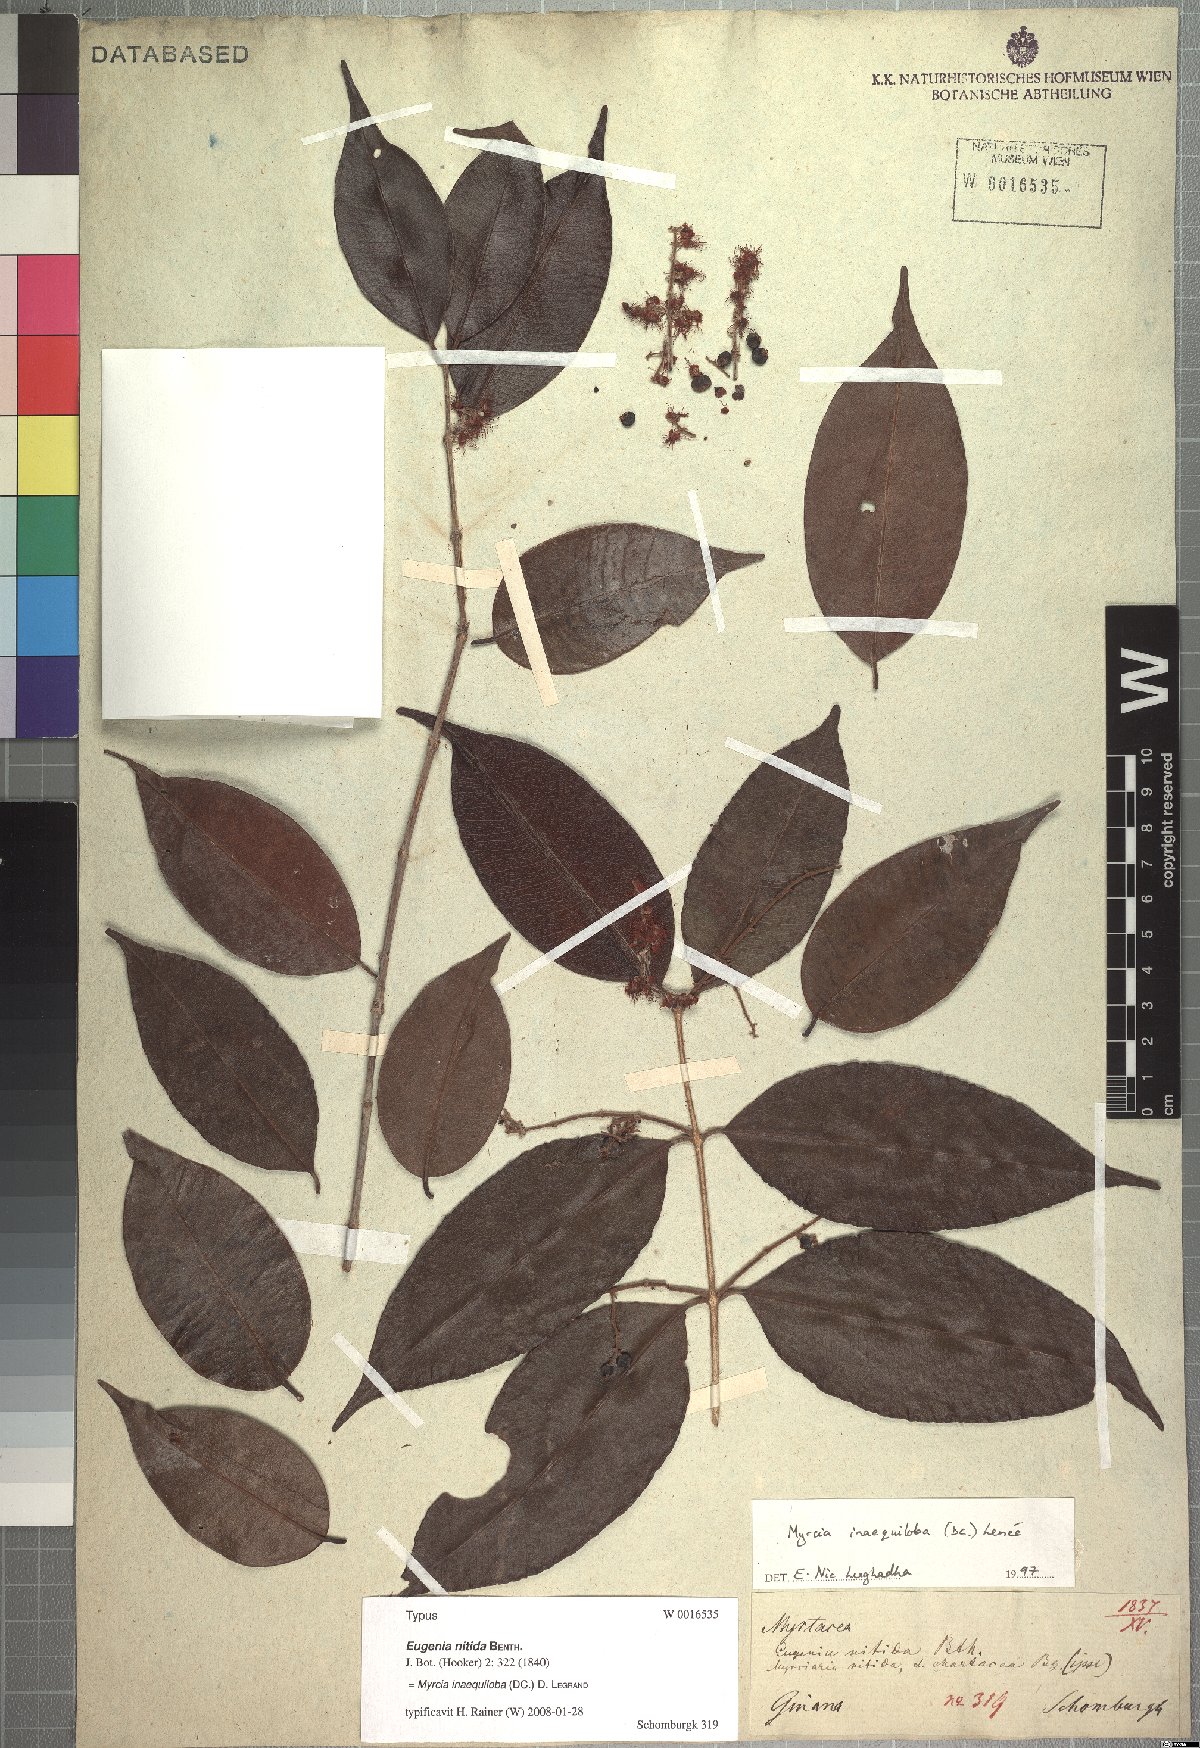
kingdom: Plantae
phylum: Tracheophyta
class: Magnoliopsida
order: Myrtales
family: Myrtaceae
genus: Myrcia
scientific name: Myrcia inaequiloba
